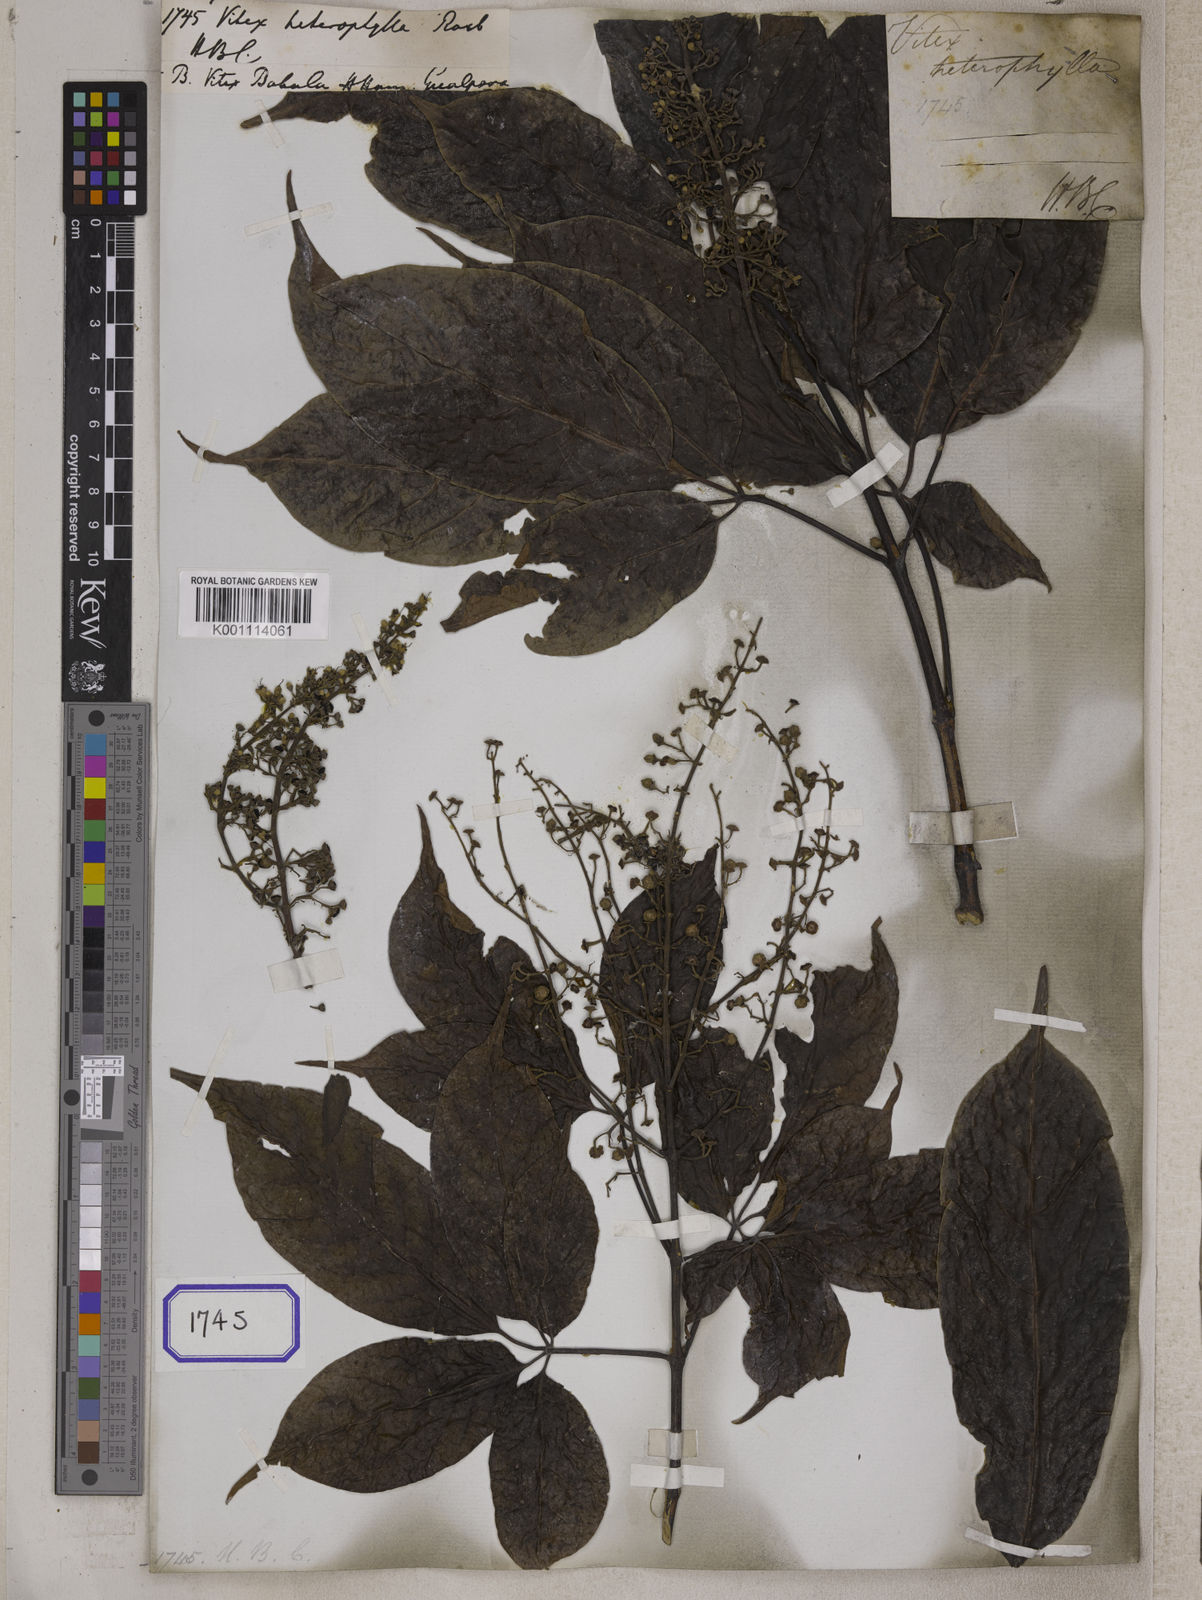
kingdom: Plantae
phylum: Tracheophyta
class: Magnoliopsida
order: Lamiales
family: Lamiaceae
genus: Vitex
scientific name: Vitex quinata
